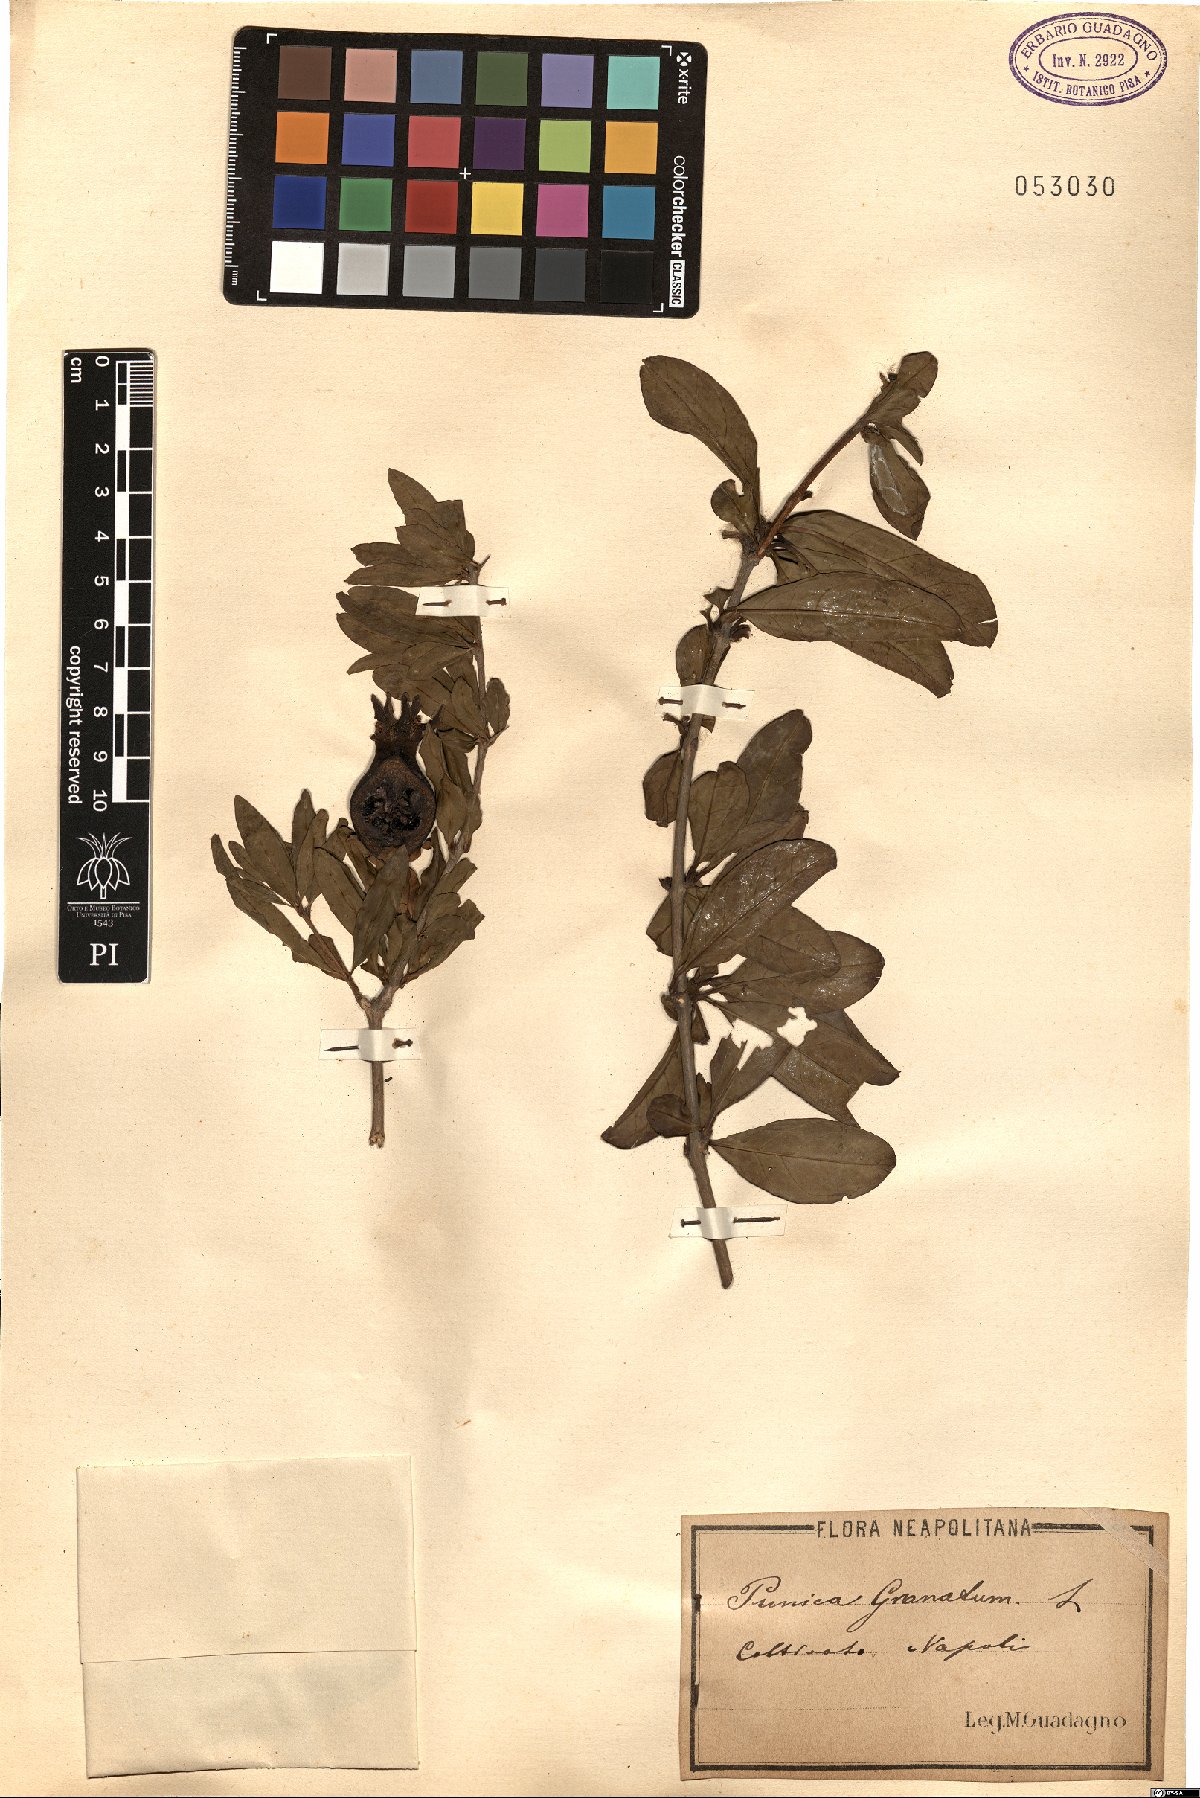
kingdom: Plantae
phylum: Tracheophyta
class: Magnoliopsida
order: Myrtales
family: Lythraceae
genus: Punica
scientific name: Punica granatum
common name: Pomegranate
